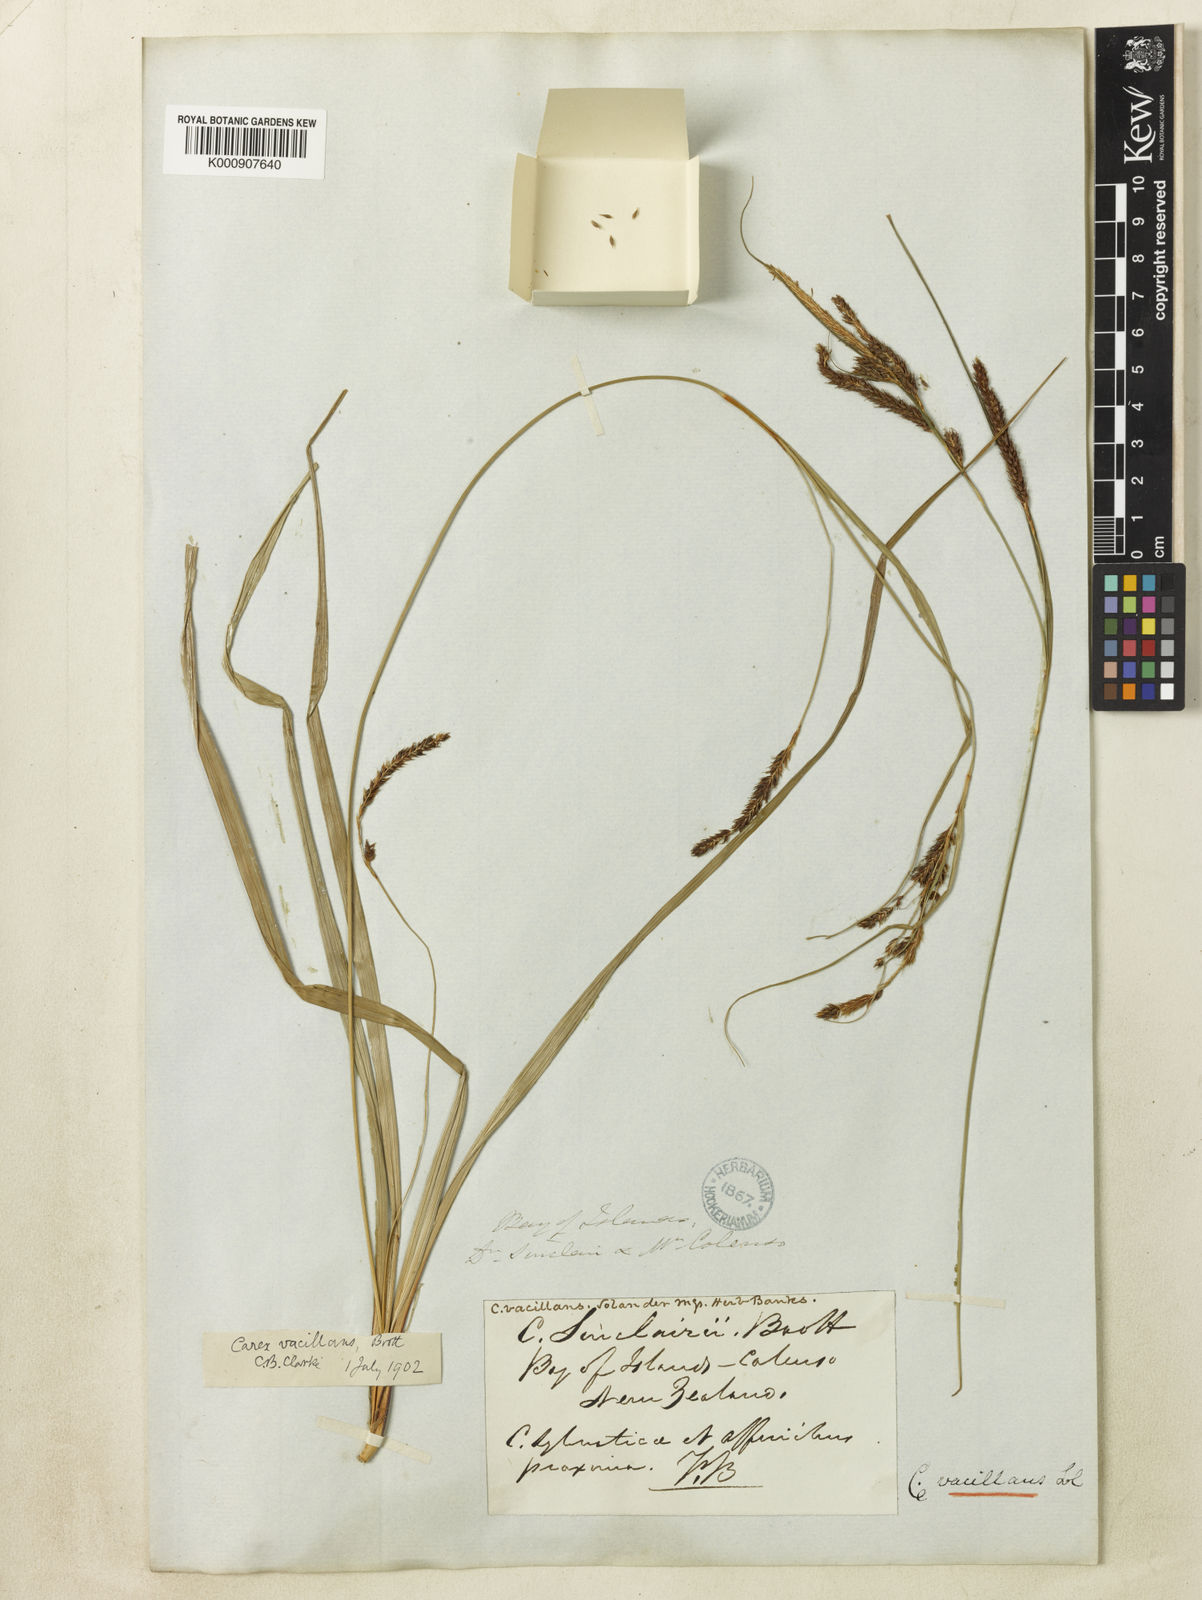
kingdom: Plantae
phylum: Tracheophyta
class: Liliopsida
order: Poales
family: Cyperaceae
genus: Carex
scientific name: Carex spinirostris
